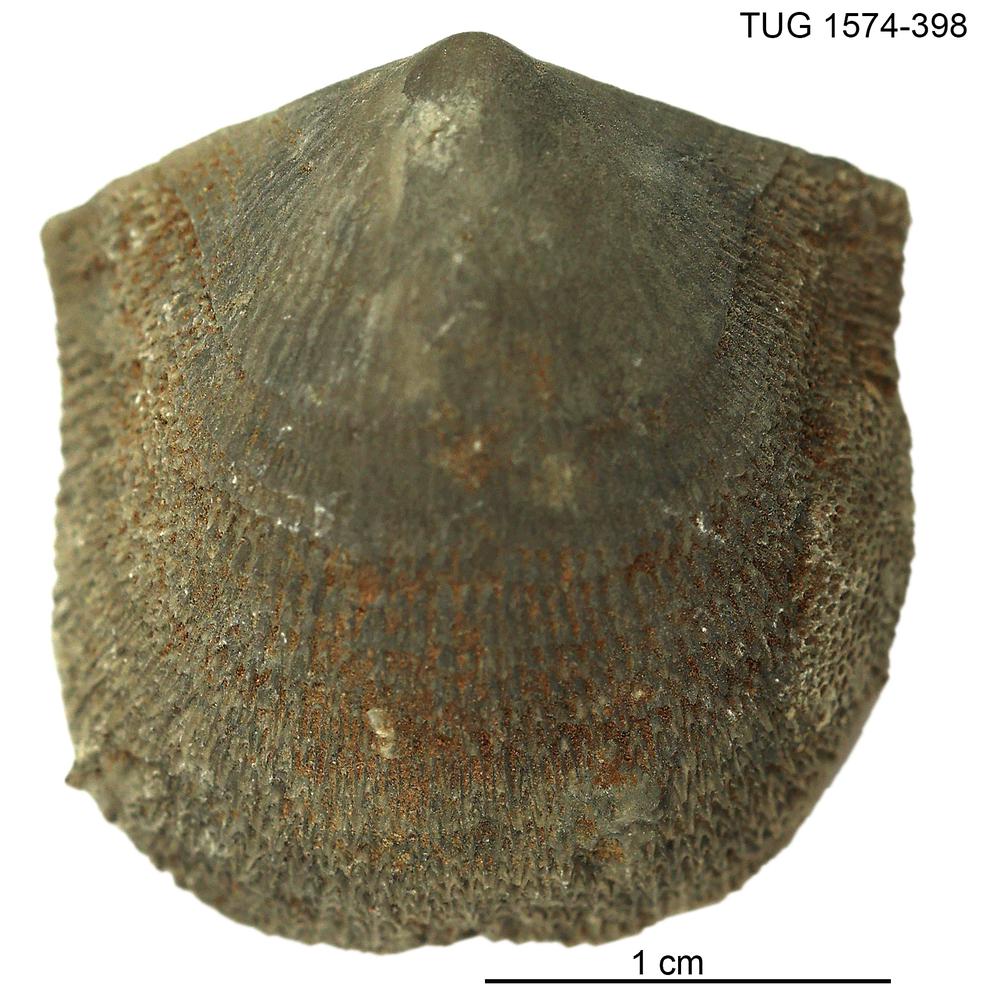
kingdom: Animalia
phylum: Brachiopoda
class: Rhynchonellata
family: Clitambonitidae
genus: Clitambonites
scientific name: Clitambonites
